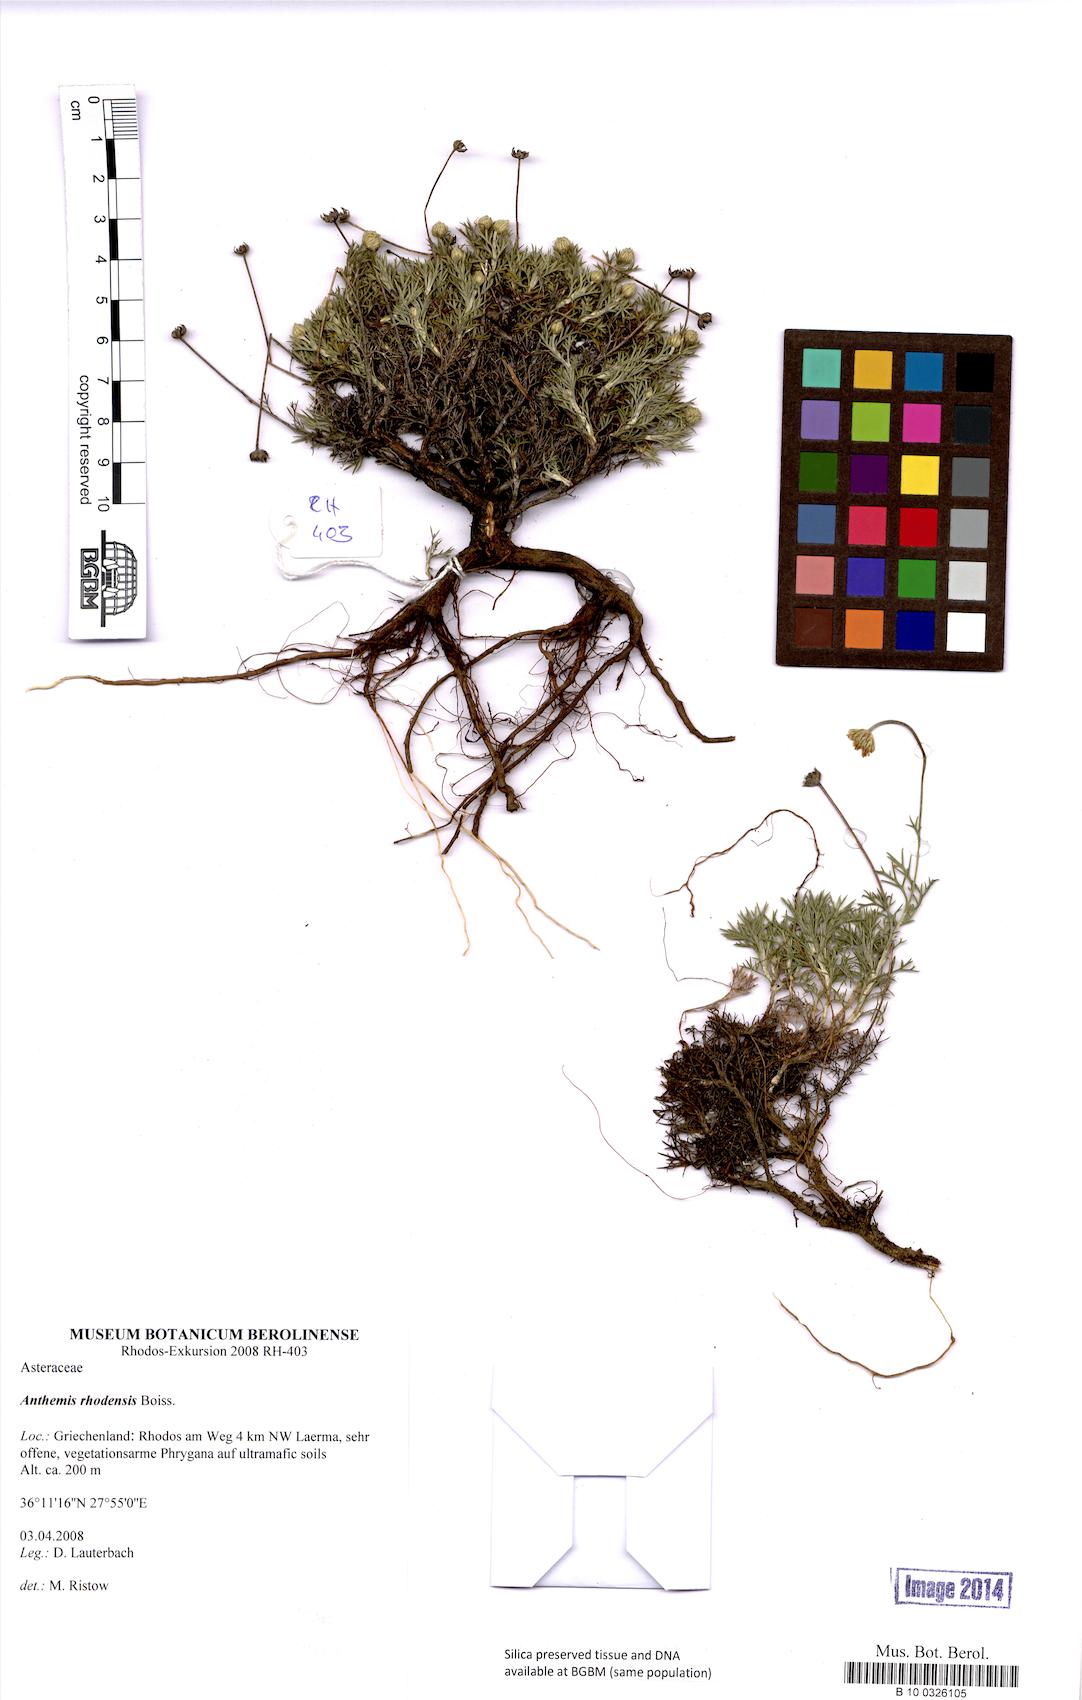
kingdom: Plantae
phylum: Tracheophyta
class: Magnoliopsida
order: Asterales
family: Asteraceae
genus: Anthemis
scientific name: Anthemis rhodensis
